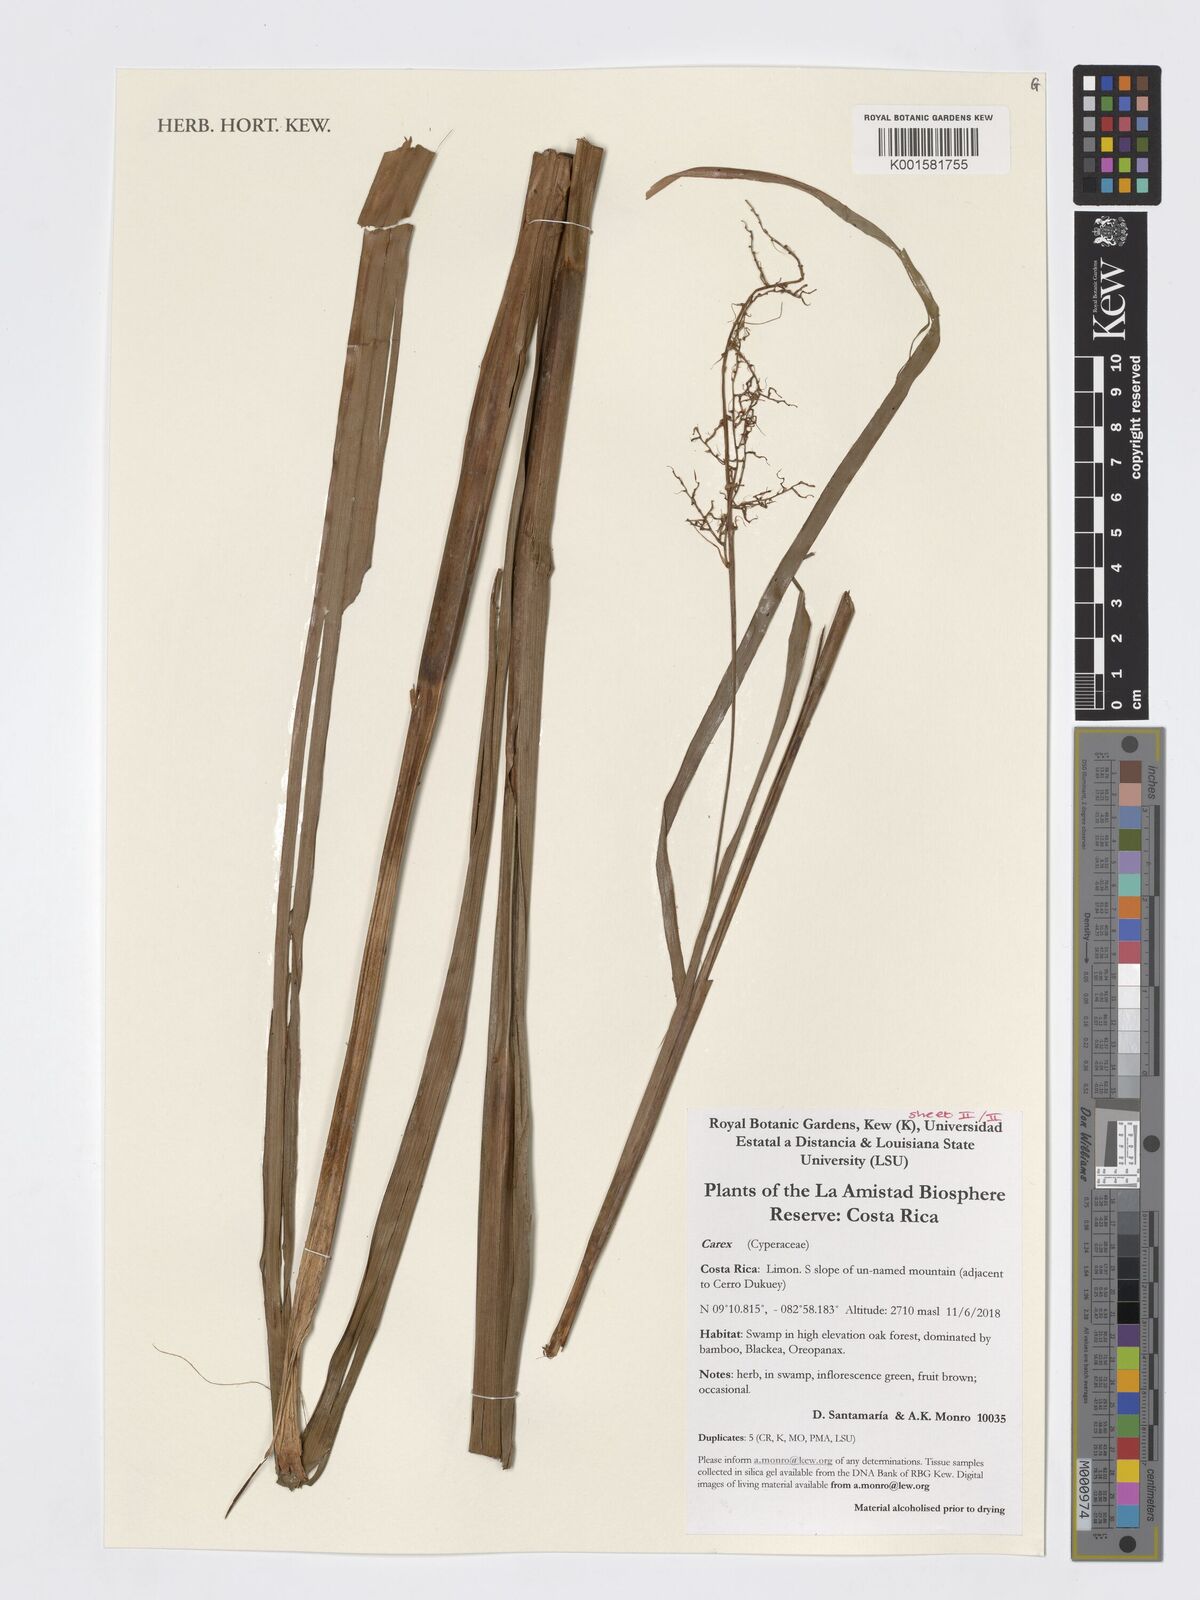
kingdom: Plantae
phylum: Tracheophyta
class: Liliopsida
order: Poales
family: Cyperaceae
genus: Carex
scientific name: Carex
